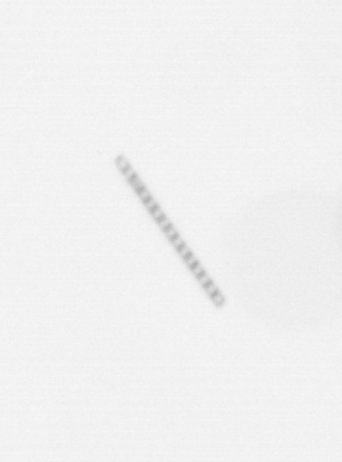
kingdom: Chromista
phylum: Ochrophyta
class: Bacillariophyceae
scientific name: Bacillariophyceae
